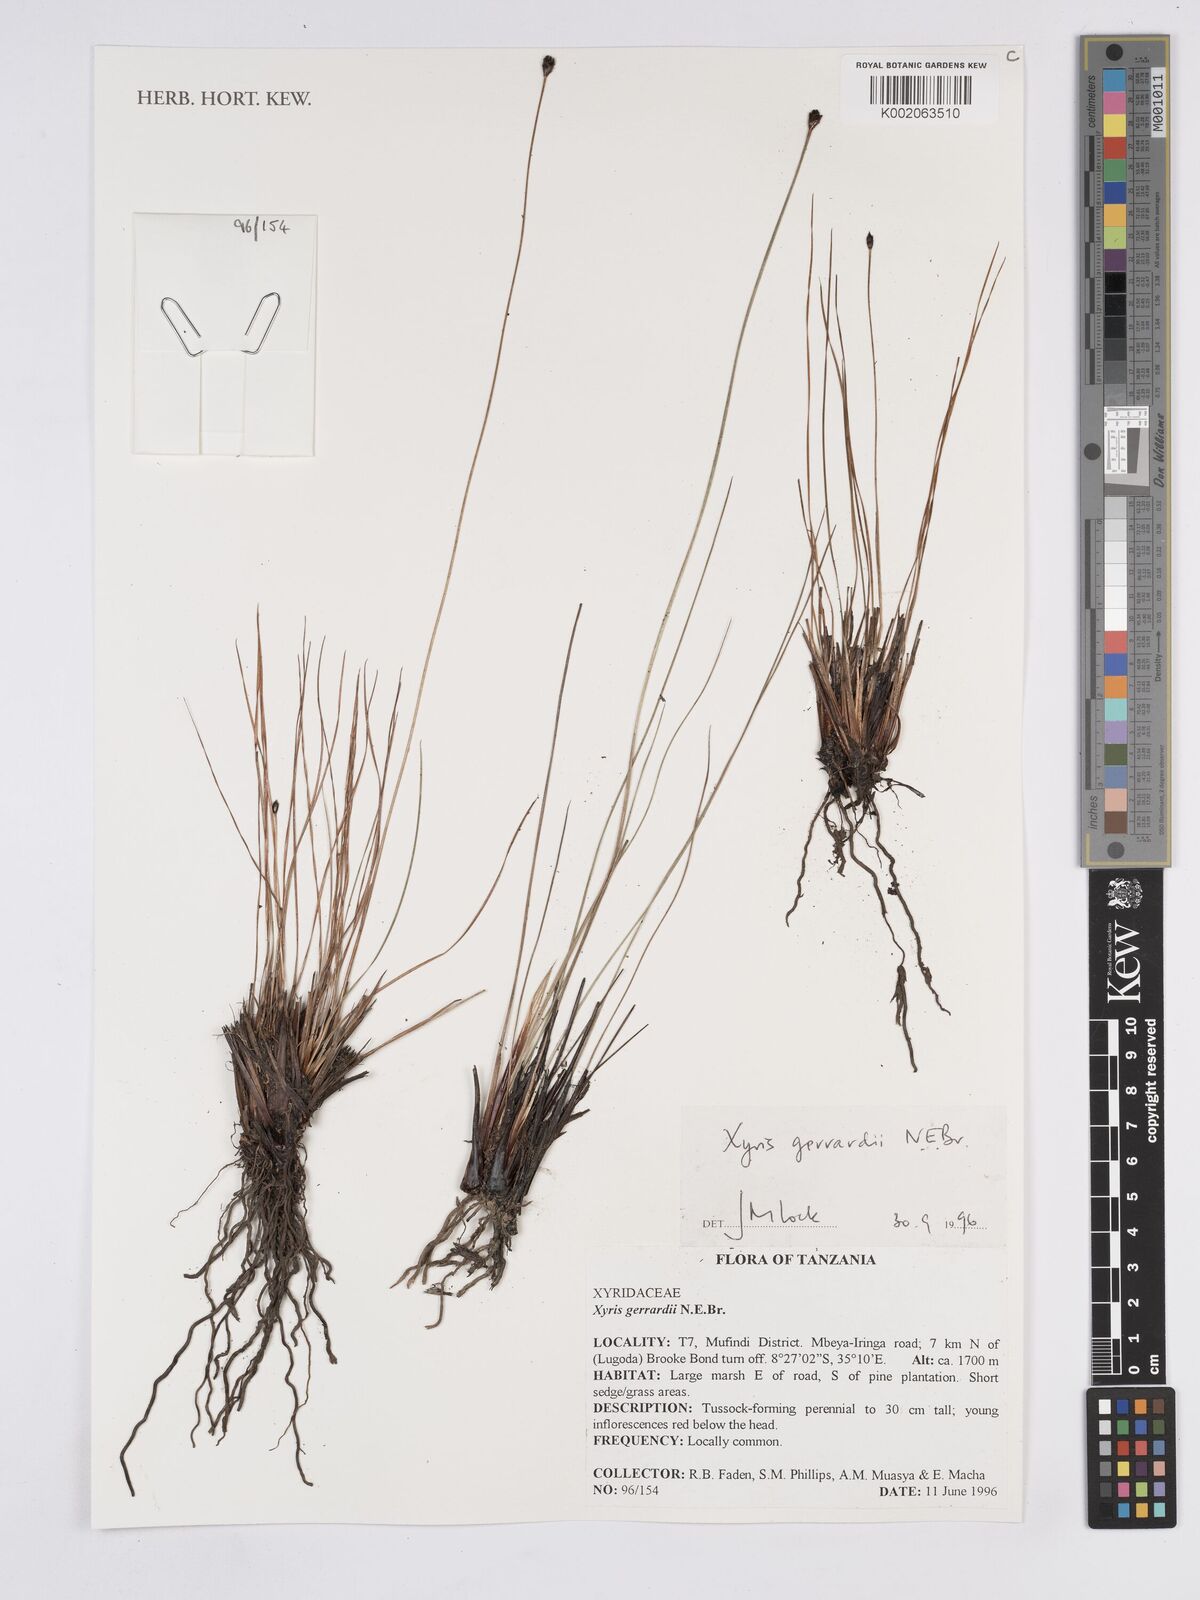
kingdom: Plantae
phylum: Tracheophyta
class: Liliopsida
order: Poales
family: Xyridaceae
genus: Xyris
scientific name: Xyris gerrardii
